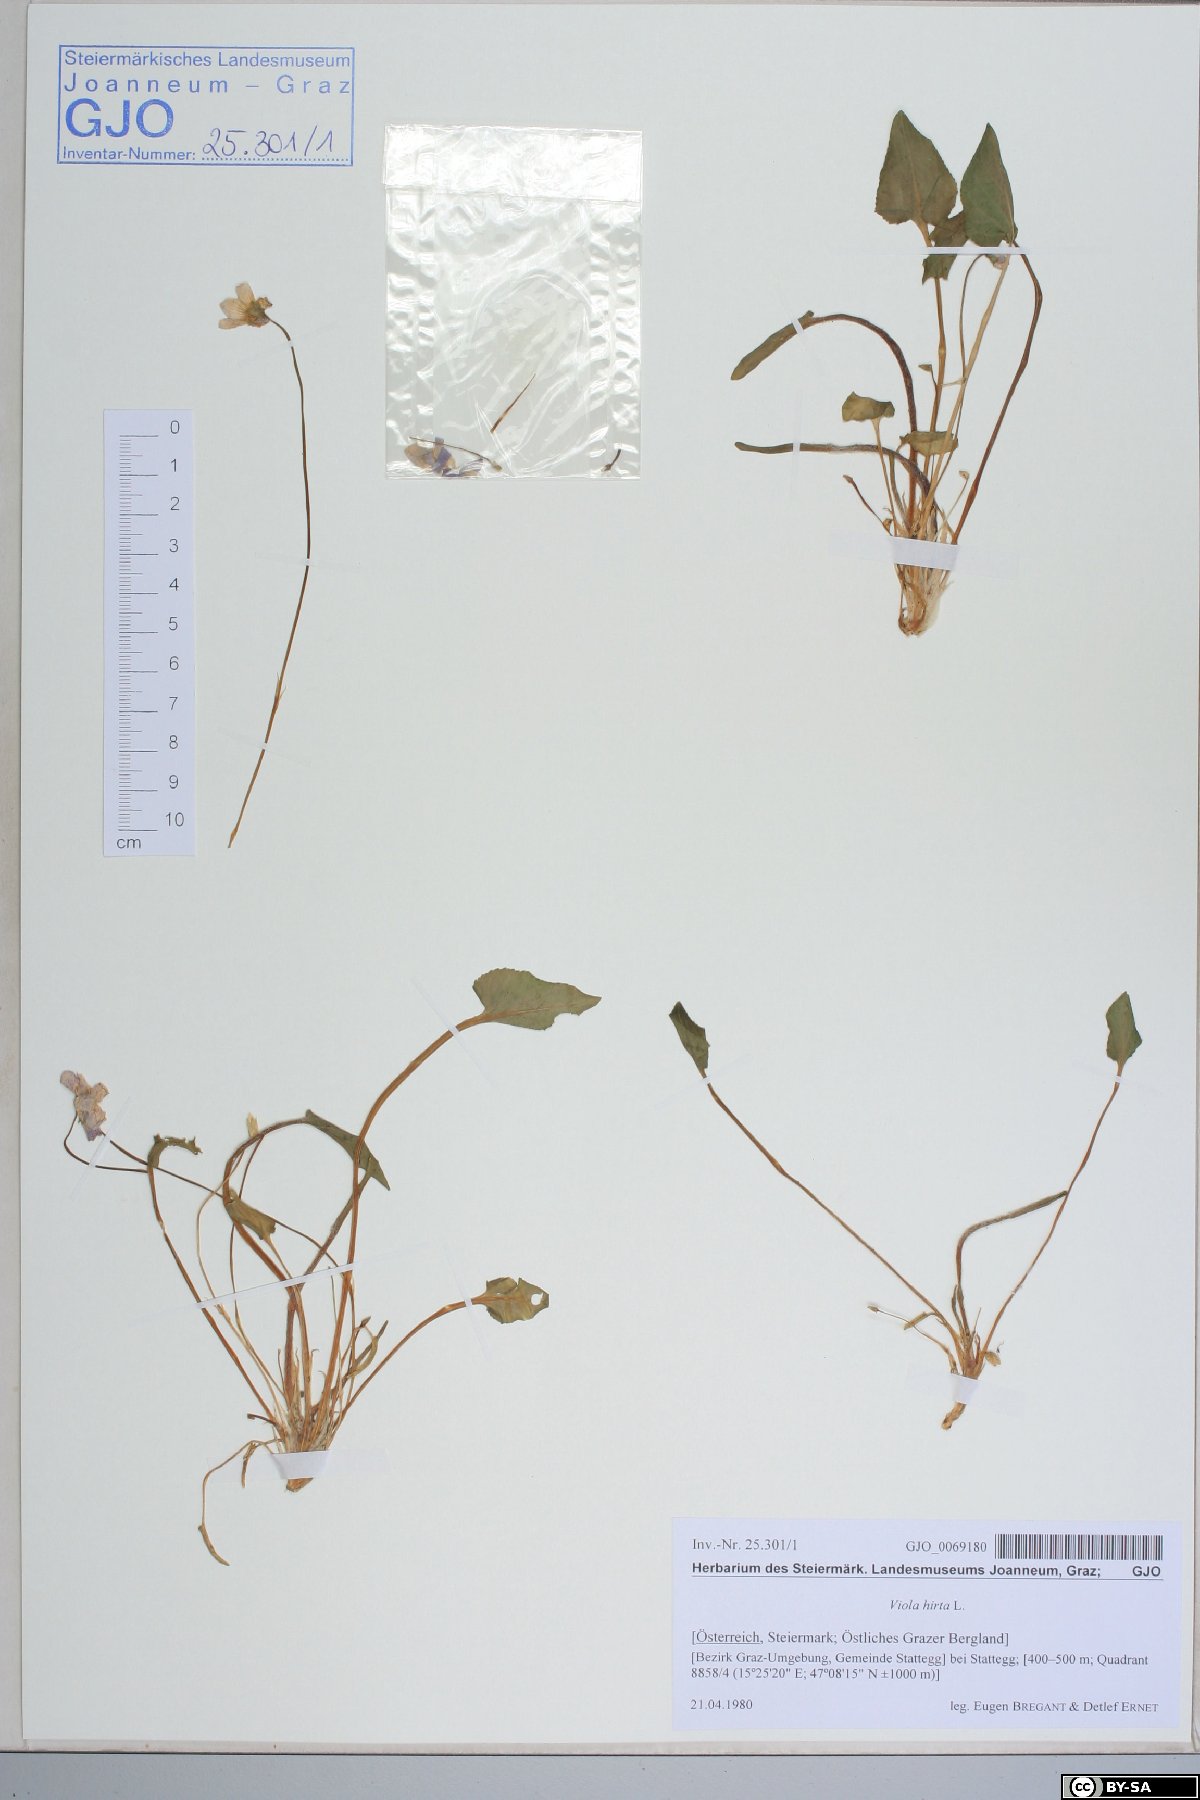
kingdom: Plantae
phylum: Tracheophyta
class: Magnoliopsida
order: Malpighiales
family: Violaceae
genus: Viola
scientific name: Viola hirta
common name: Hairy violet
